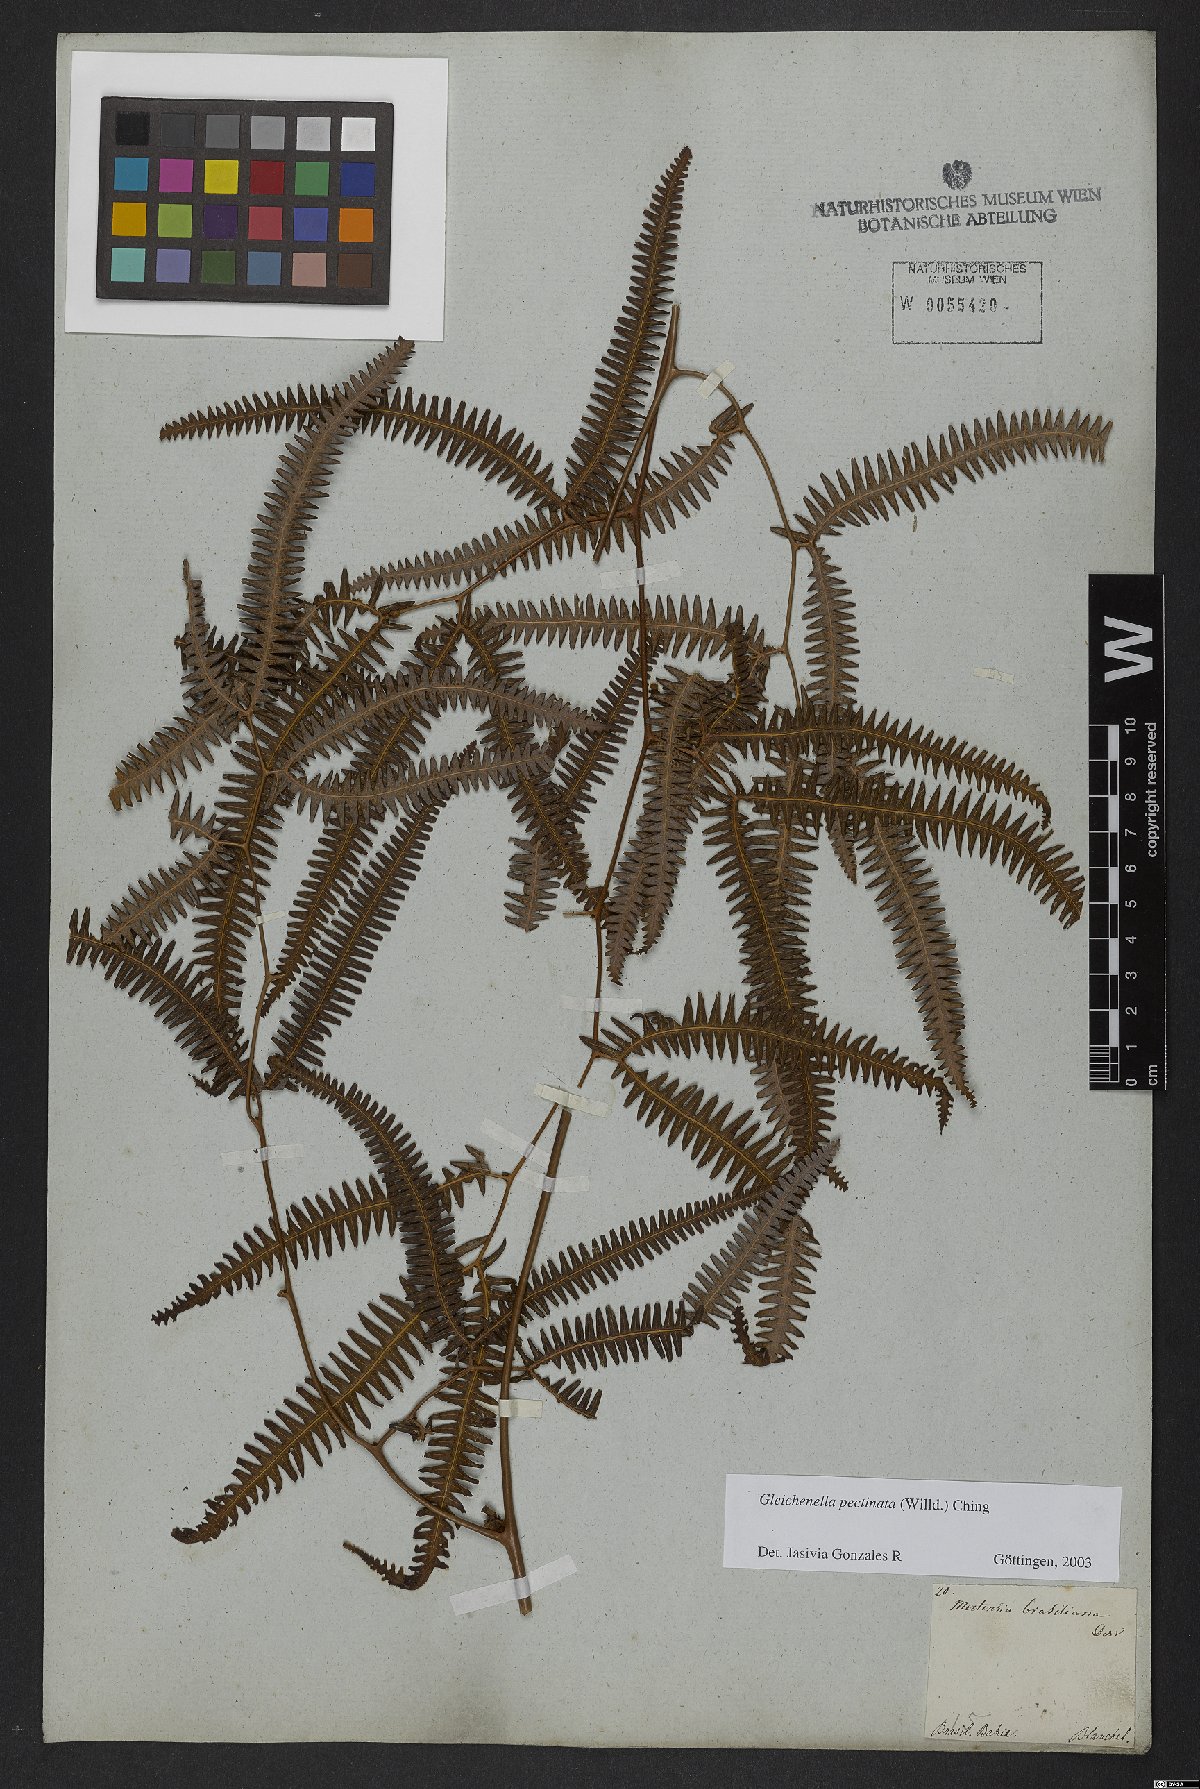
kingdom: Plantae
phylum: Tracheophyta
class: Polypodiopsida
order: Gleicheniales
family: Gleicheniaceae
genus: Gleichenella
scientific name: Gleichenella pectinata
